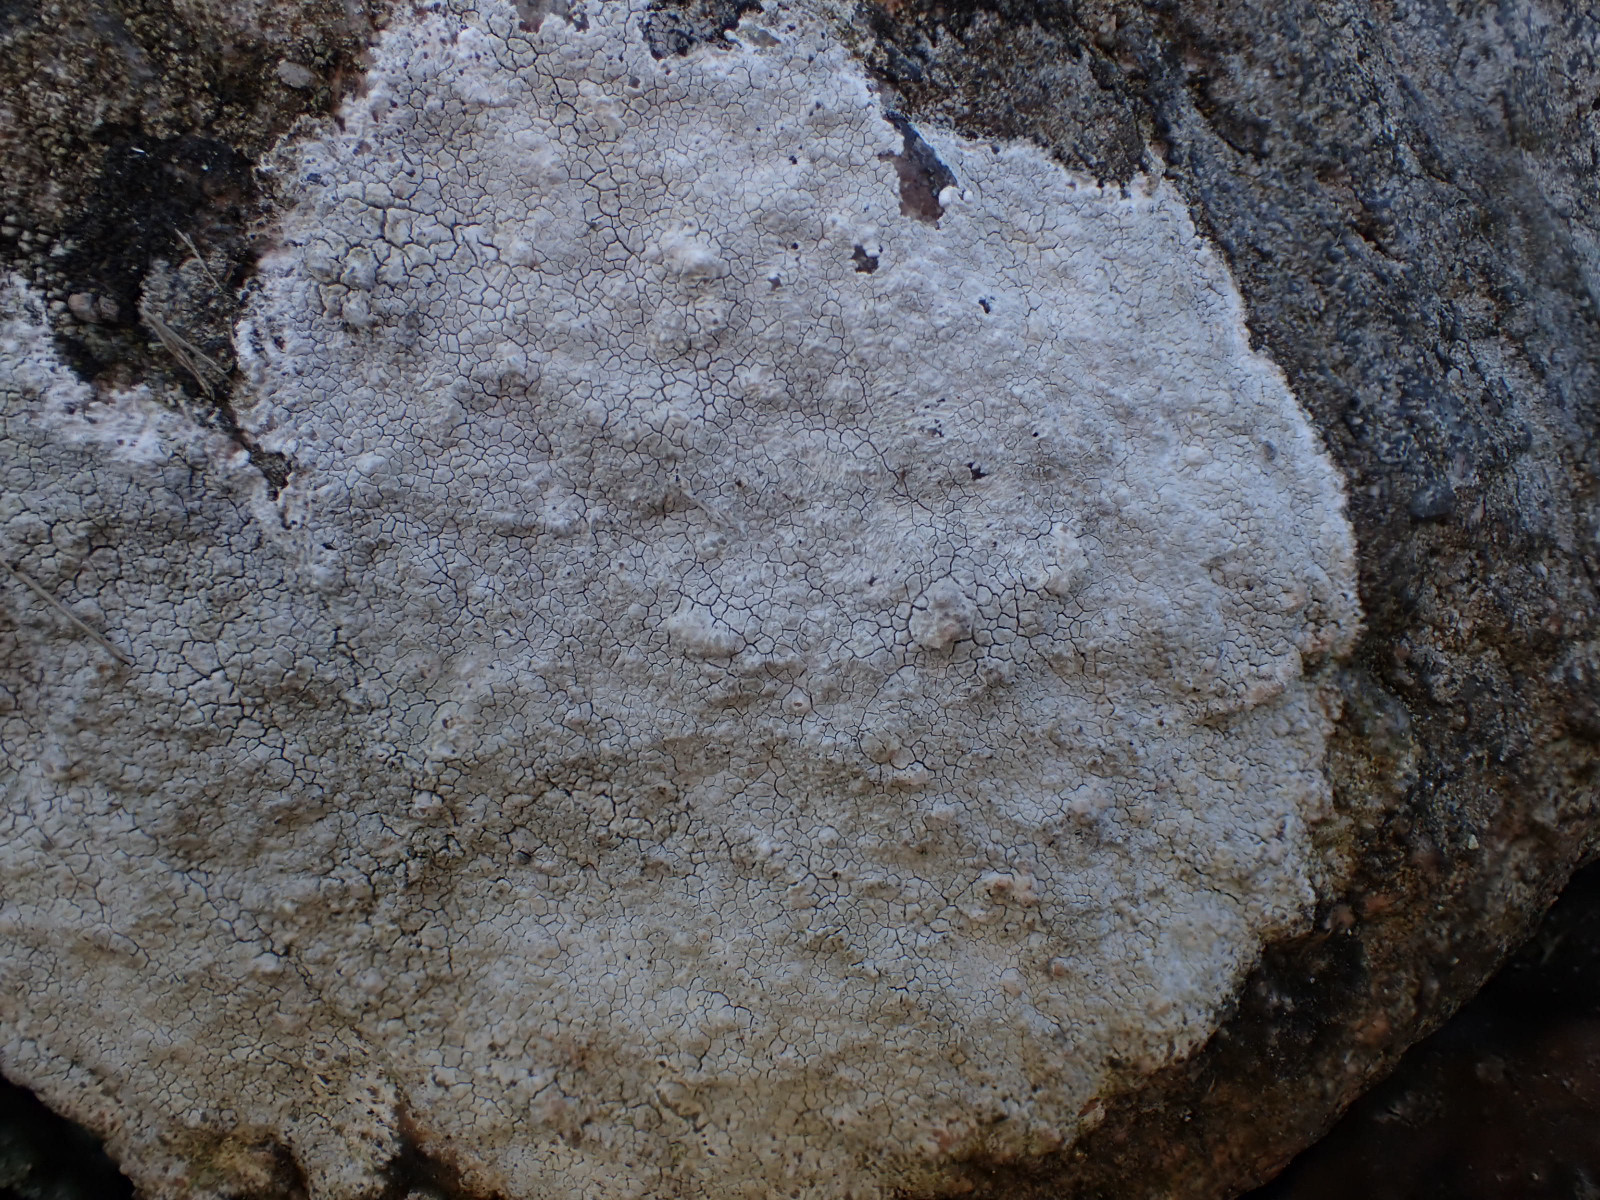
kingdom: Fungi
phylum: Ascomycota
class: Lecanoromycetes
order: Lecanorales
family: Lecanoraceae
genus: Glaucomaria
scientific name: Glaucomaria rupicola
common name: stengærde-kantskivelav
